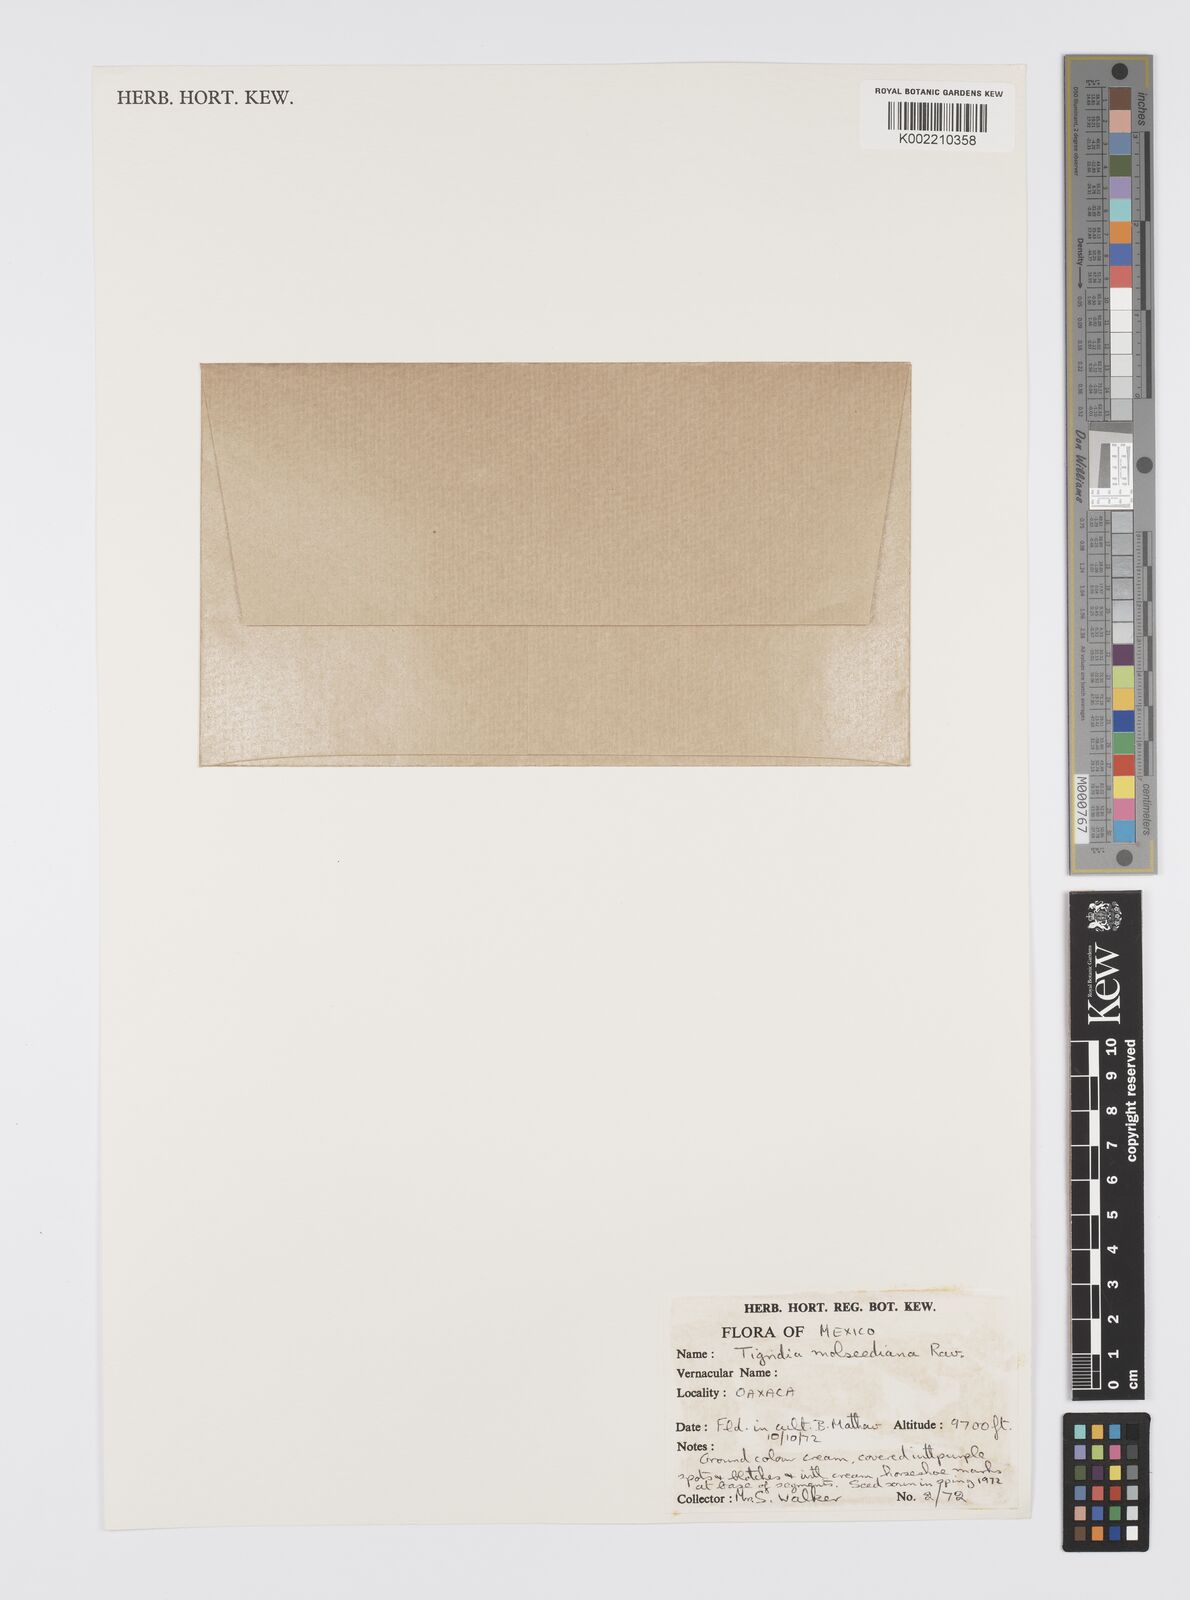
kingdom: Plantae
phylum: Tracheophyta
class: Liliopsida
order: Asparagales
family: Iridaceae
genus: Tigridia
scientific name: Tigridia molseediana
